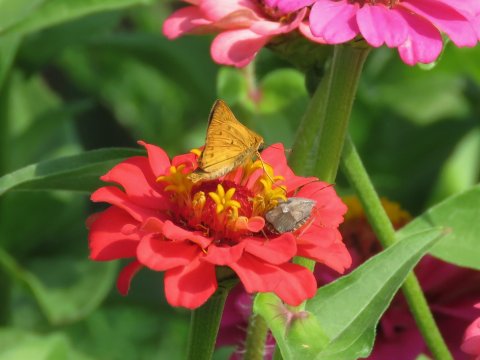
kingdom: Animalia
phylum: Arthropoda
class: Insecta
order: Lepidoptera
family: Hesperiidae
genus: Hylephila
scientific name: Hylephila phyleus
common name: Fiery Skipper
